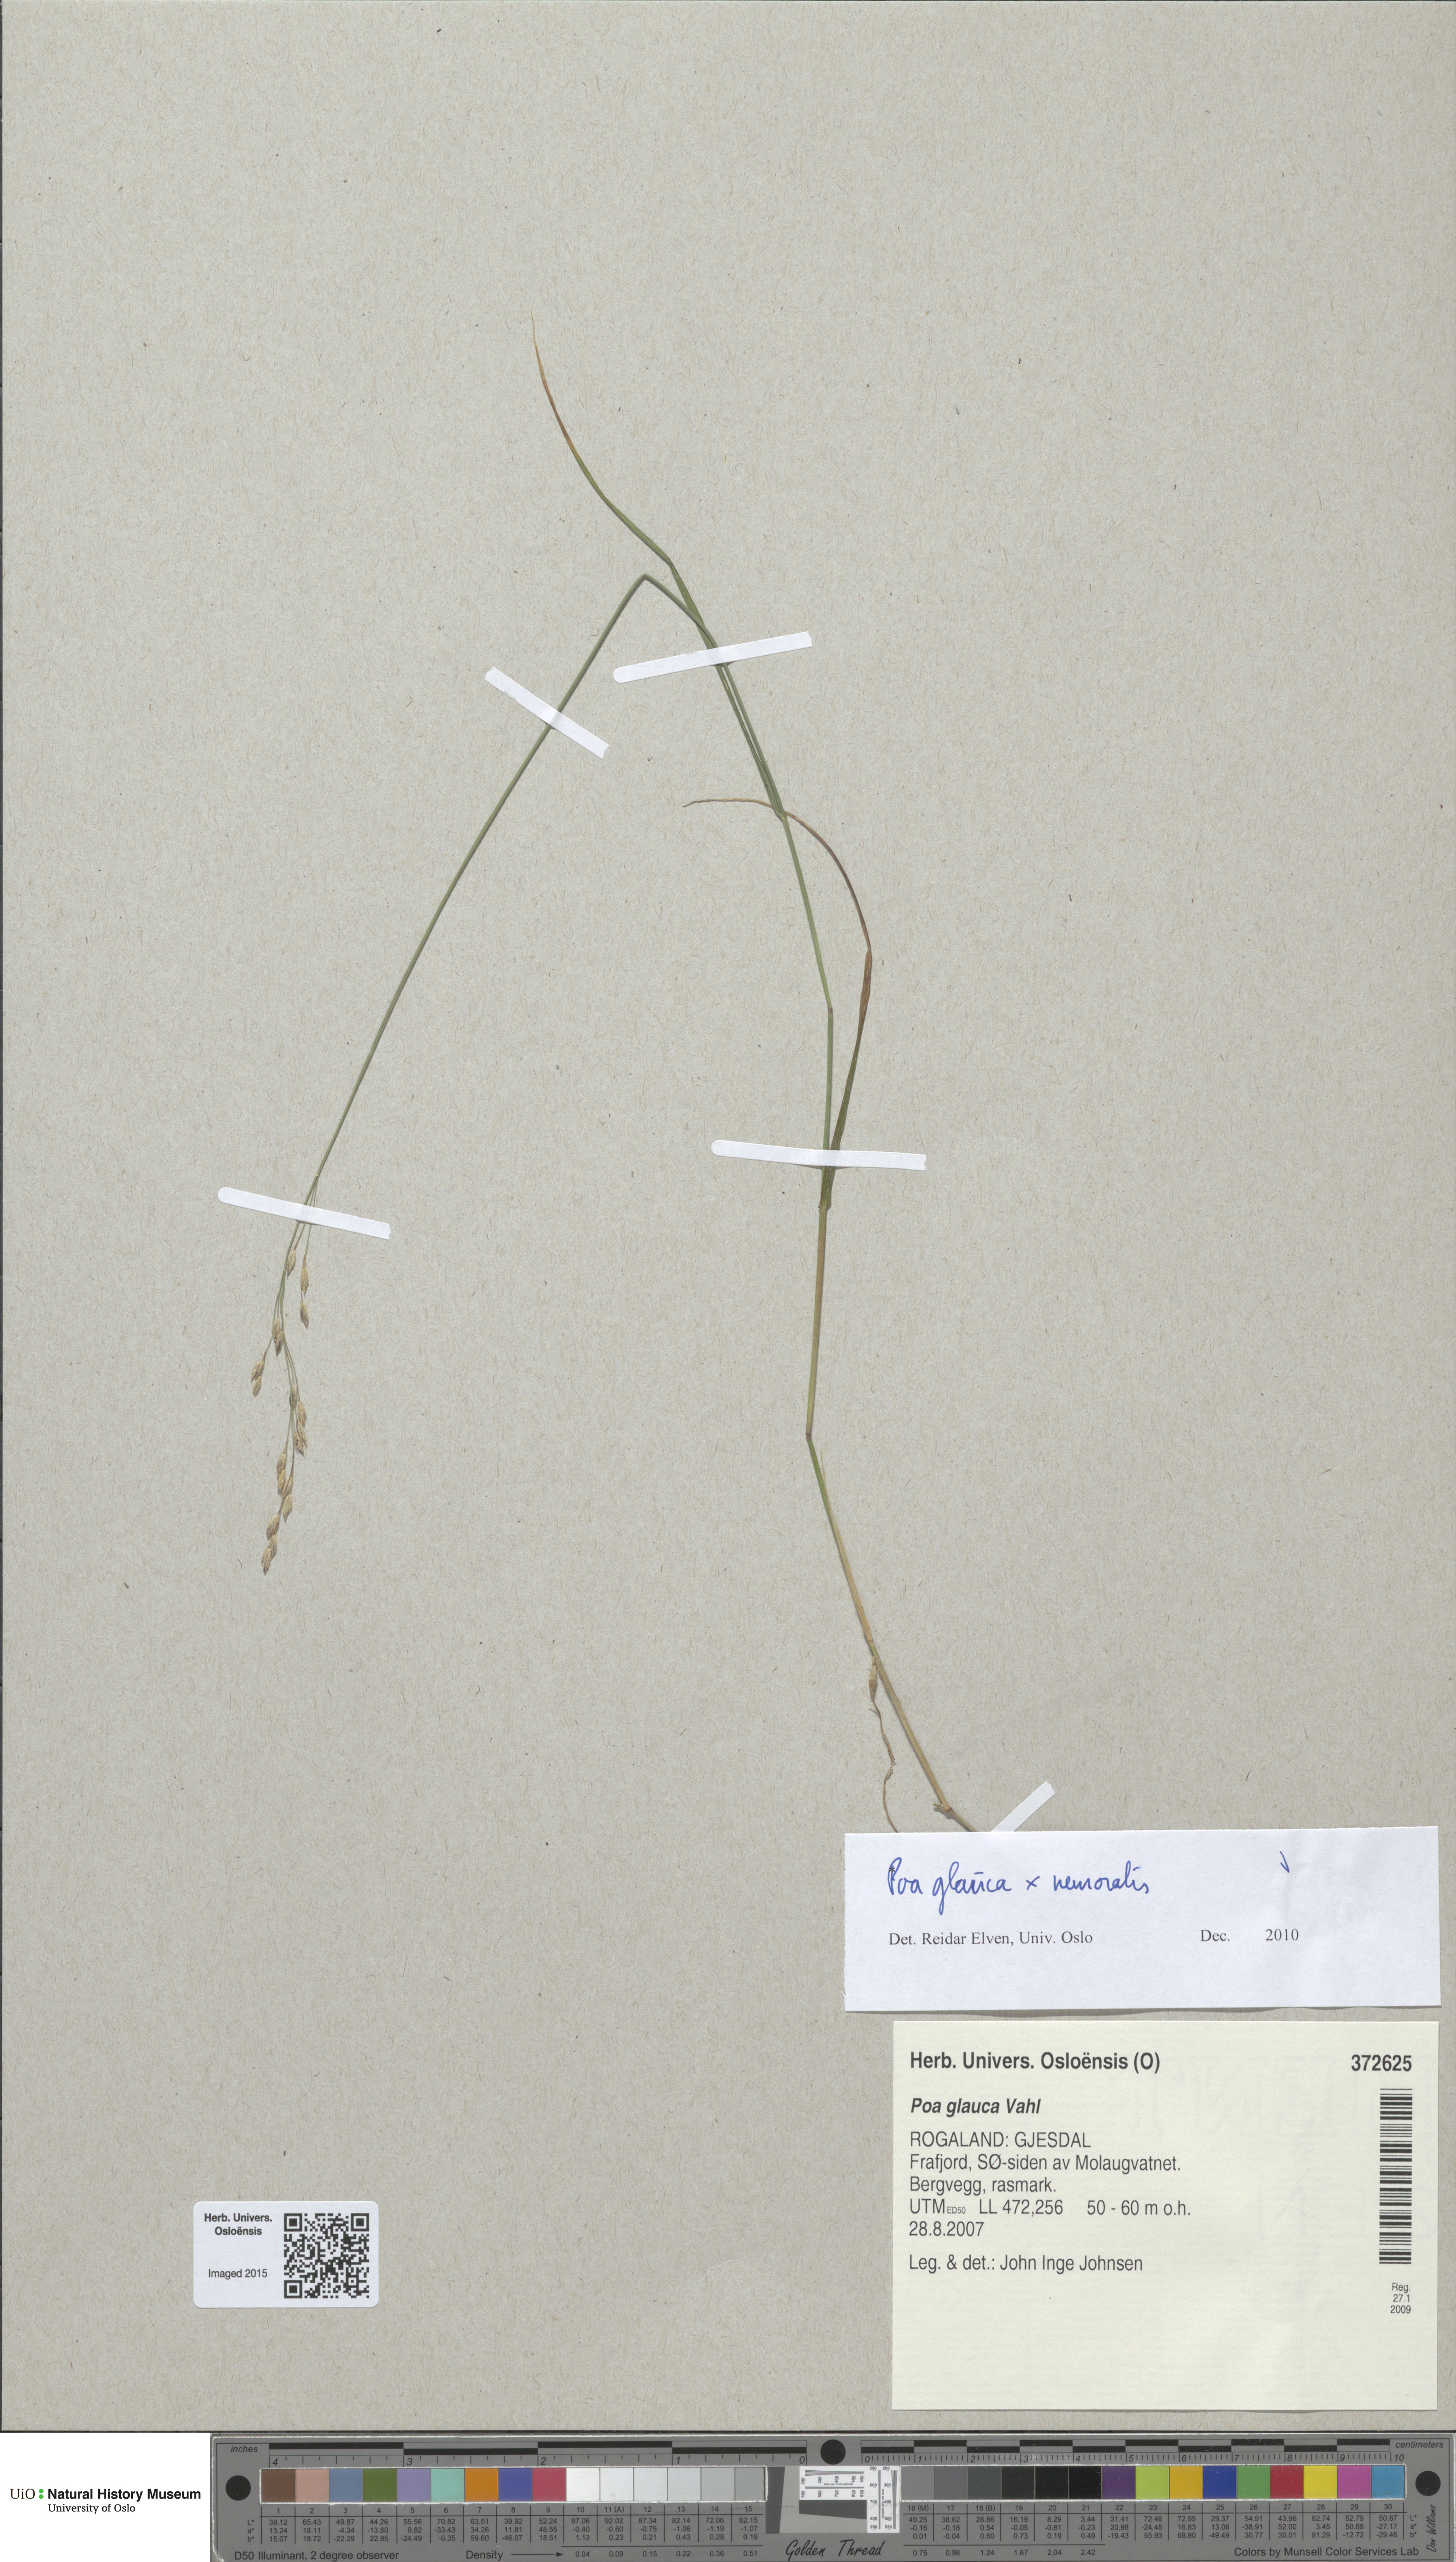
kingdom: Plantae
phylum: Tracheophyta
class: Liliopsida
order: Poales
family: Poaceae
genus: Poa
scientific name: Poa
